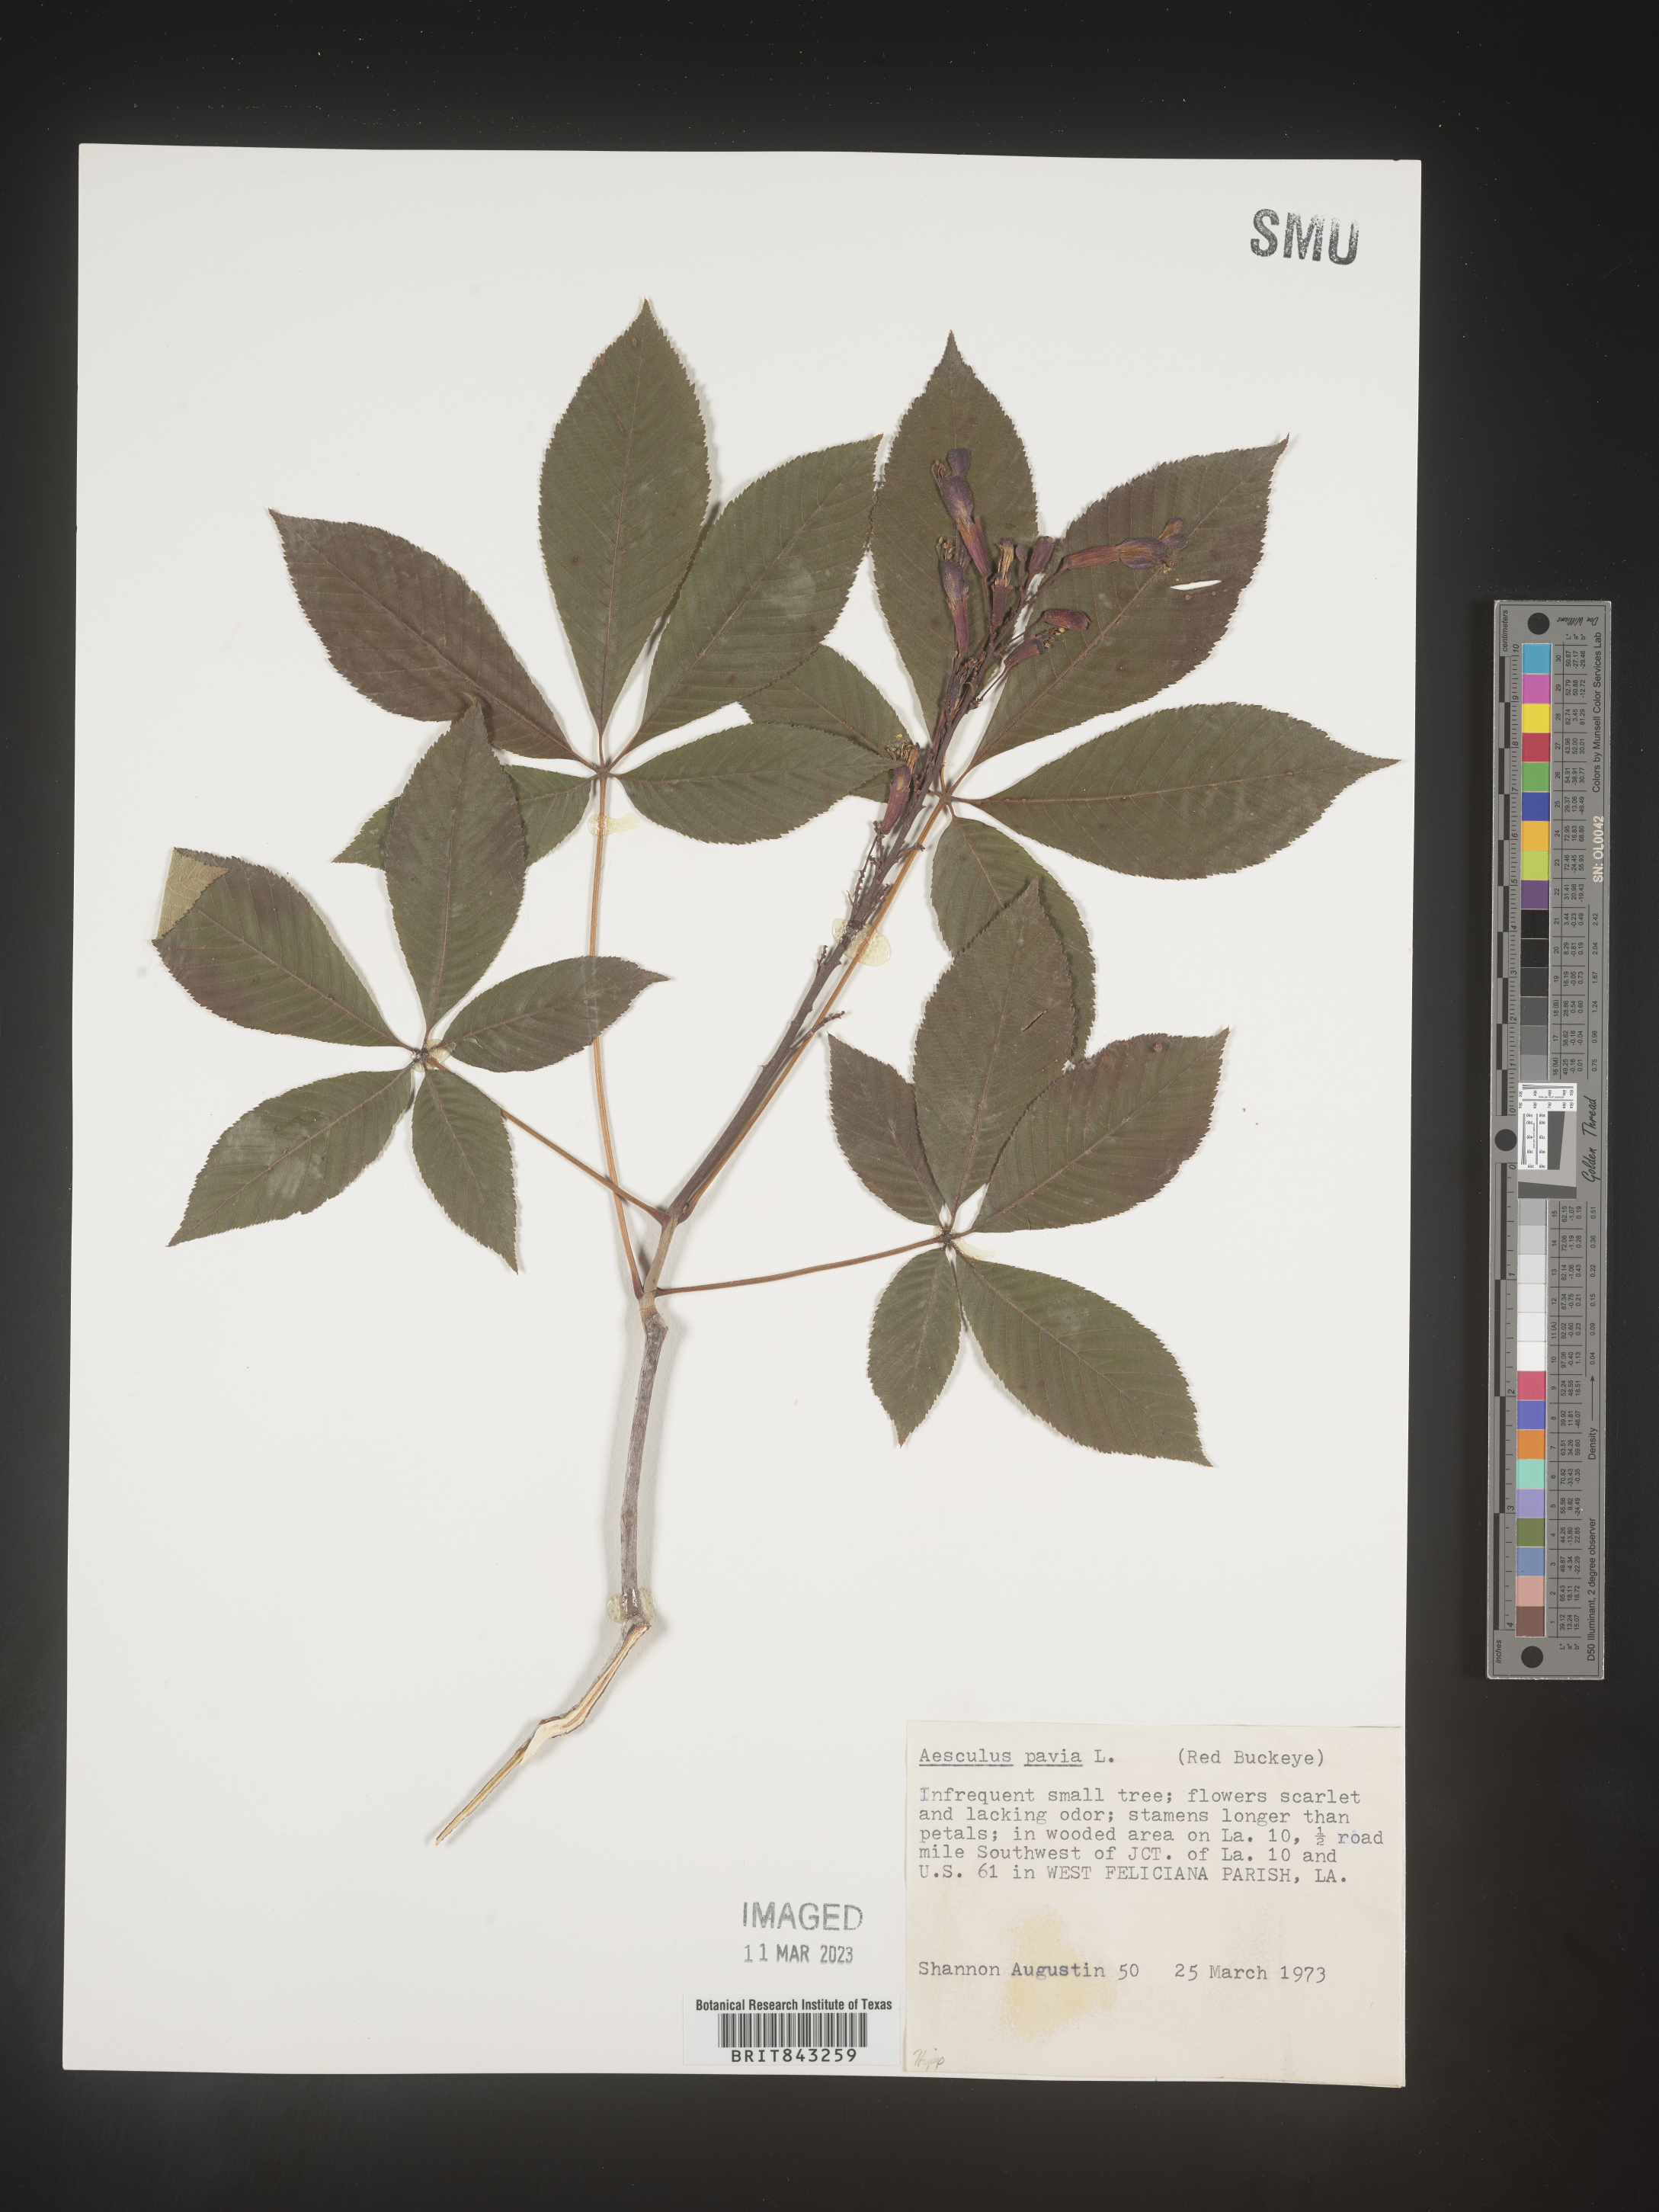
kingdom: Plantae
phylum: Tracheophyta
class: Magnoliopsida
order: Sapindales
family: Sapindaceae
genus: Aesculus
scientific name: Aesculus pavia
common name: Red buckeye
